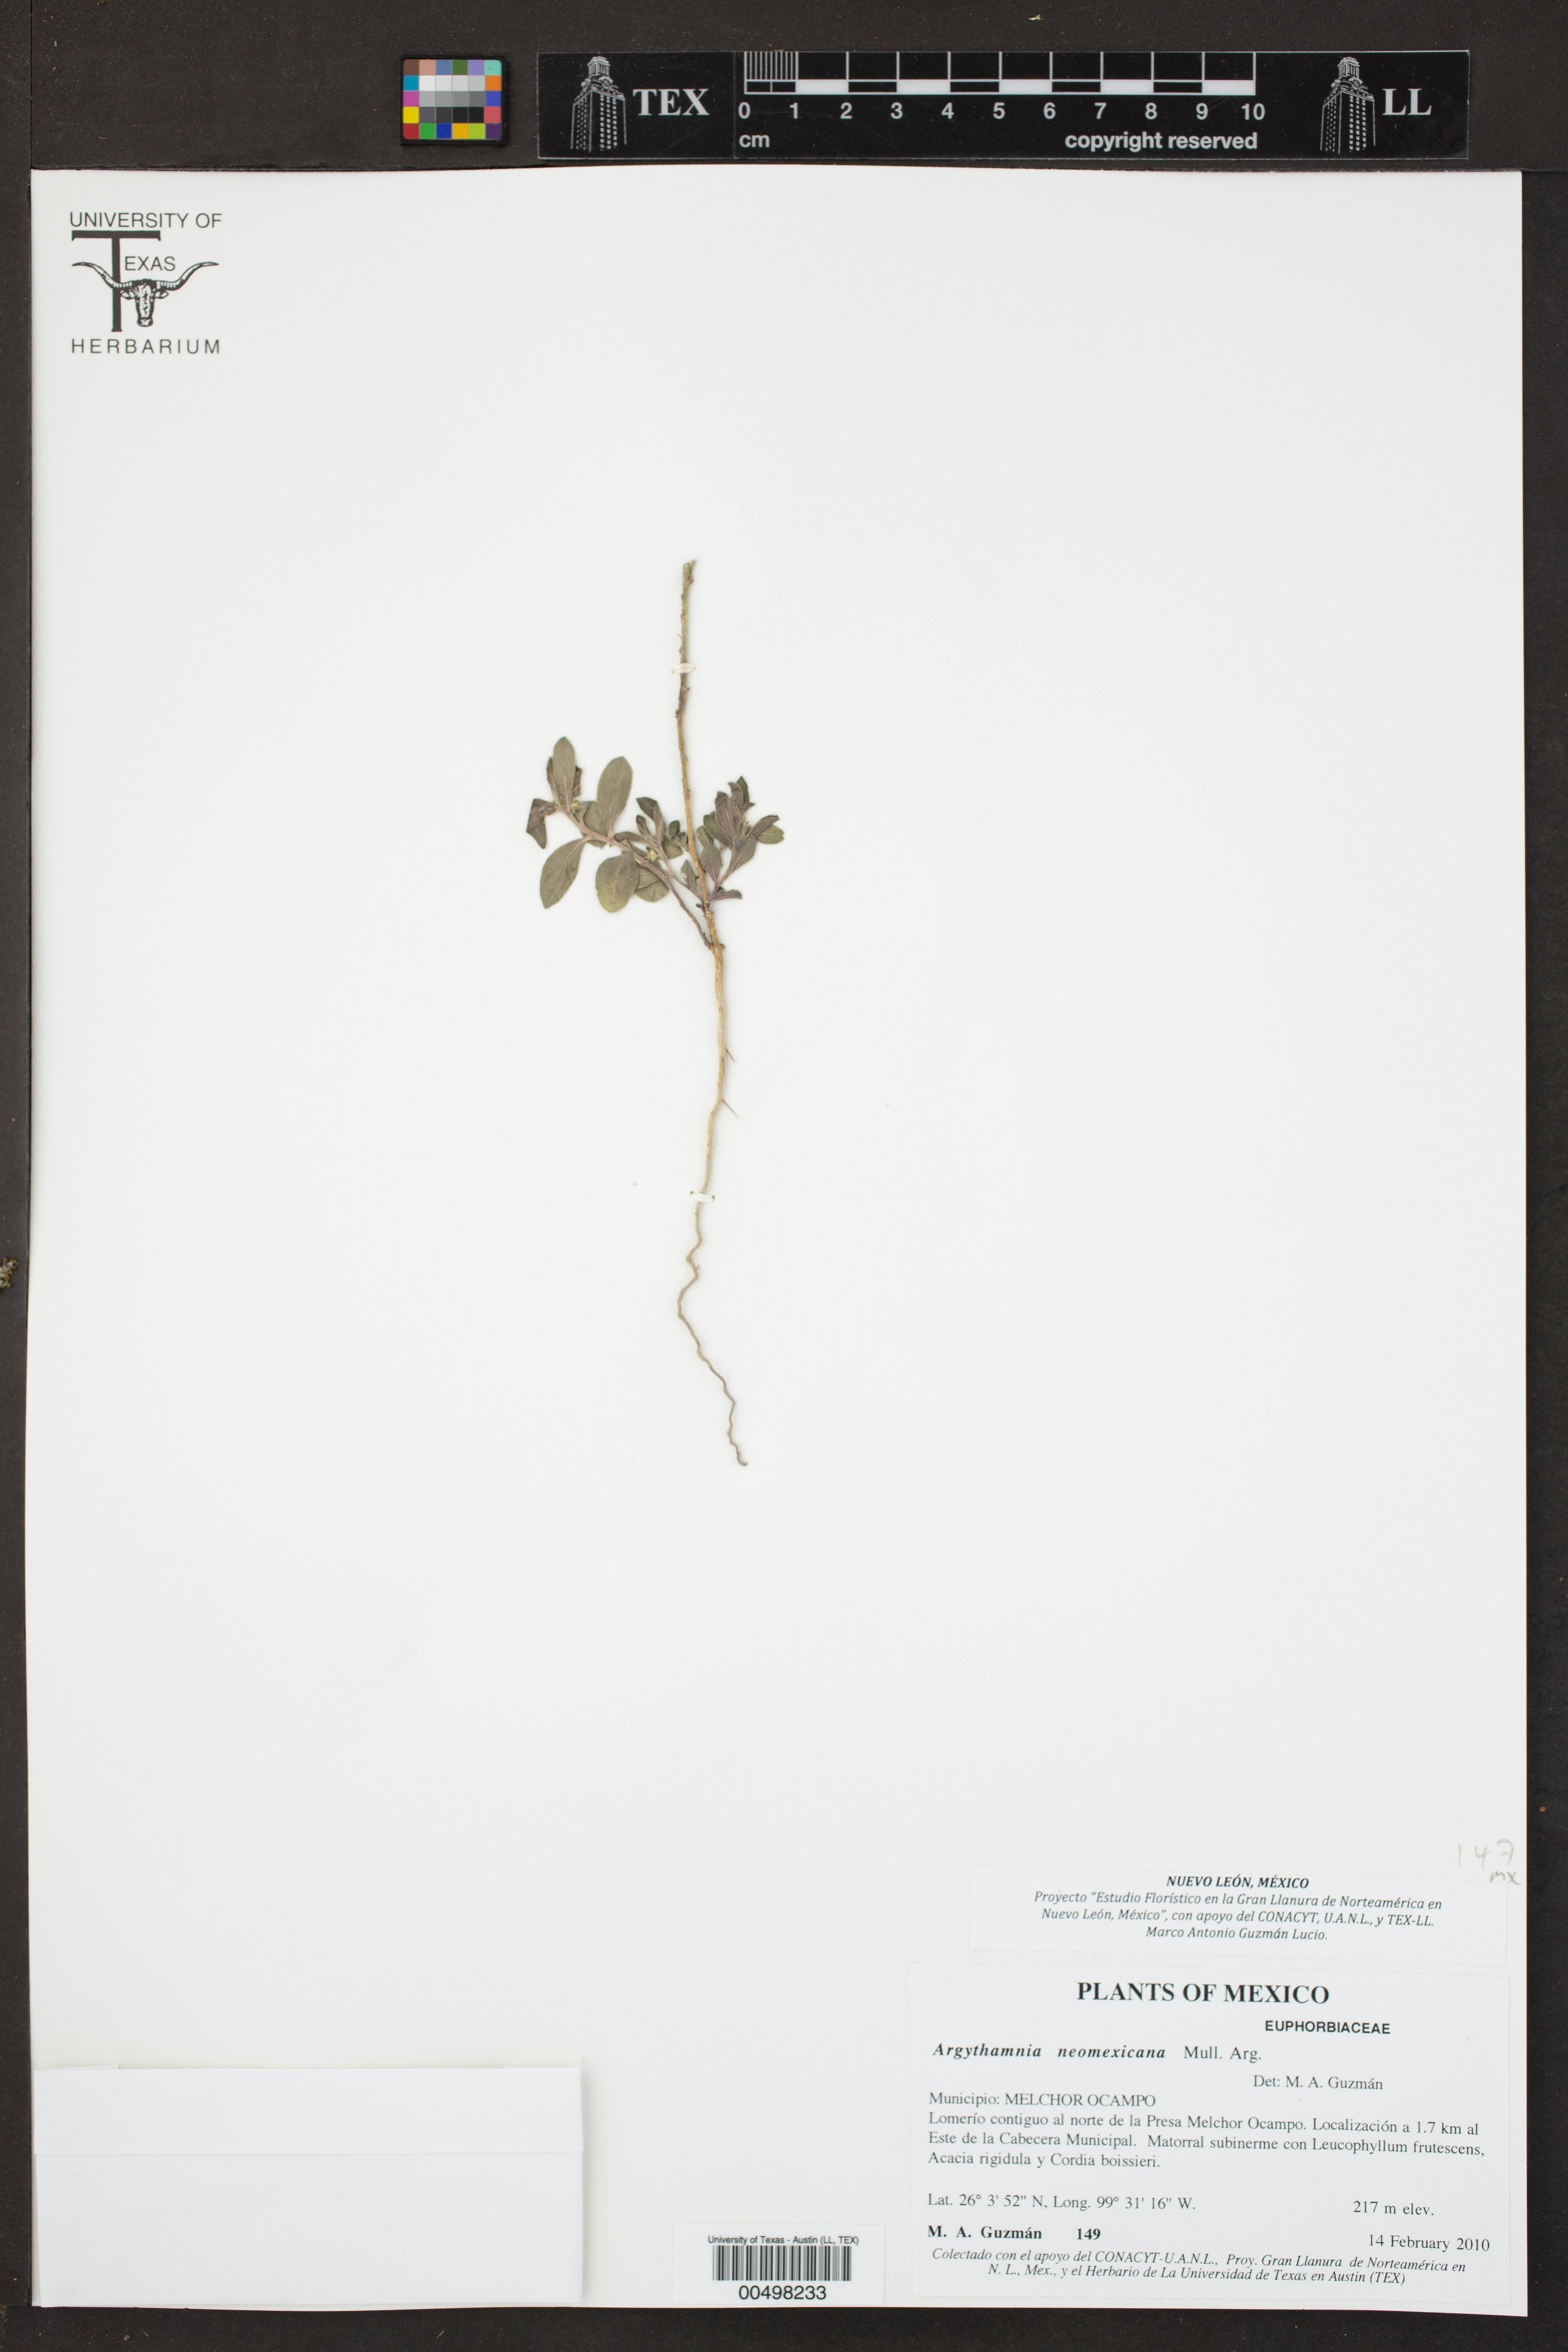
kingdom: Plantae
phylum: Tracheophyta
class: Magnoliopsida
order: Malpighiales
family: Euphorbiaceae
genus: Ditaxis
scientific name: Ditaxis serrata
